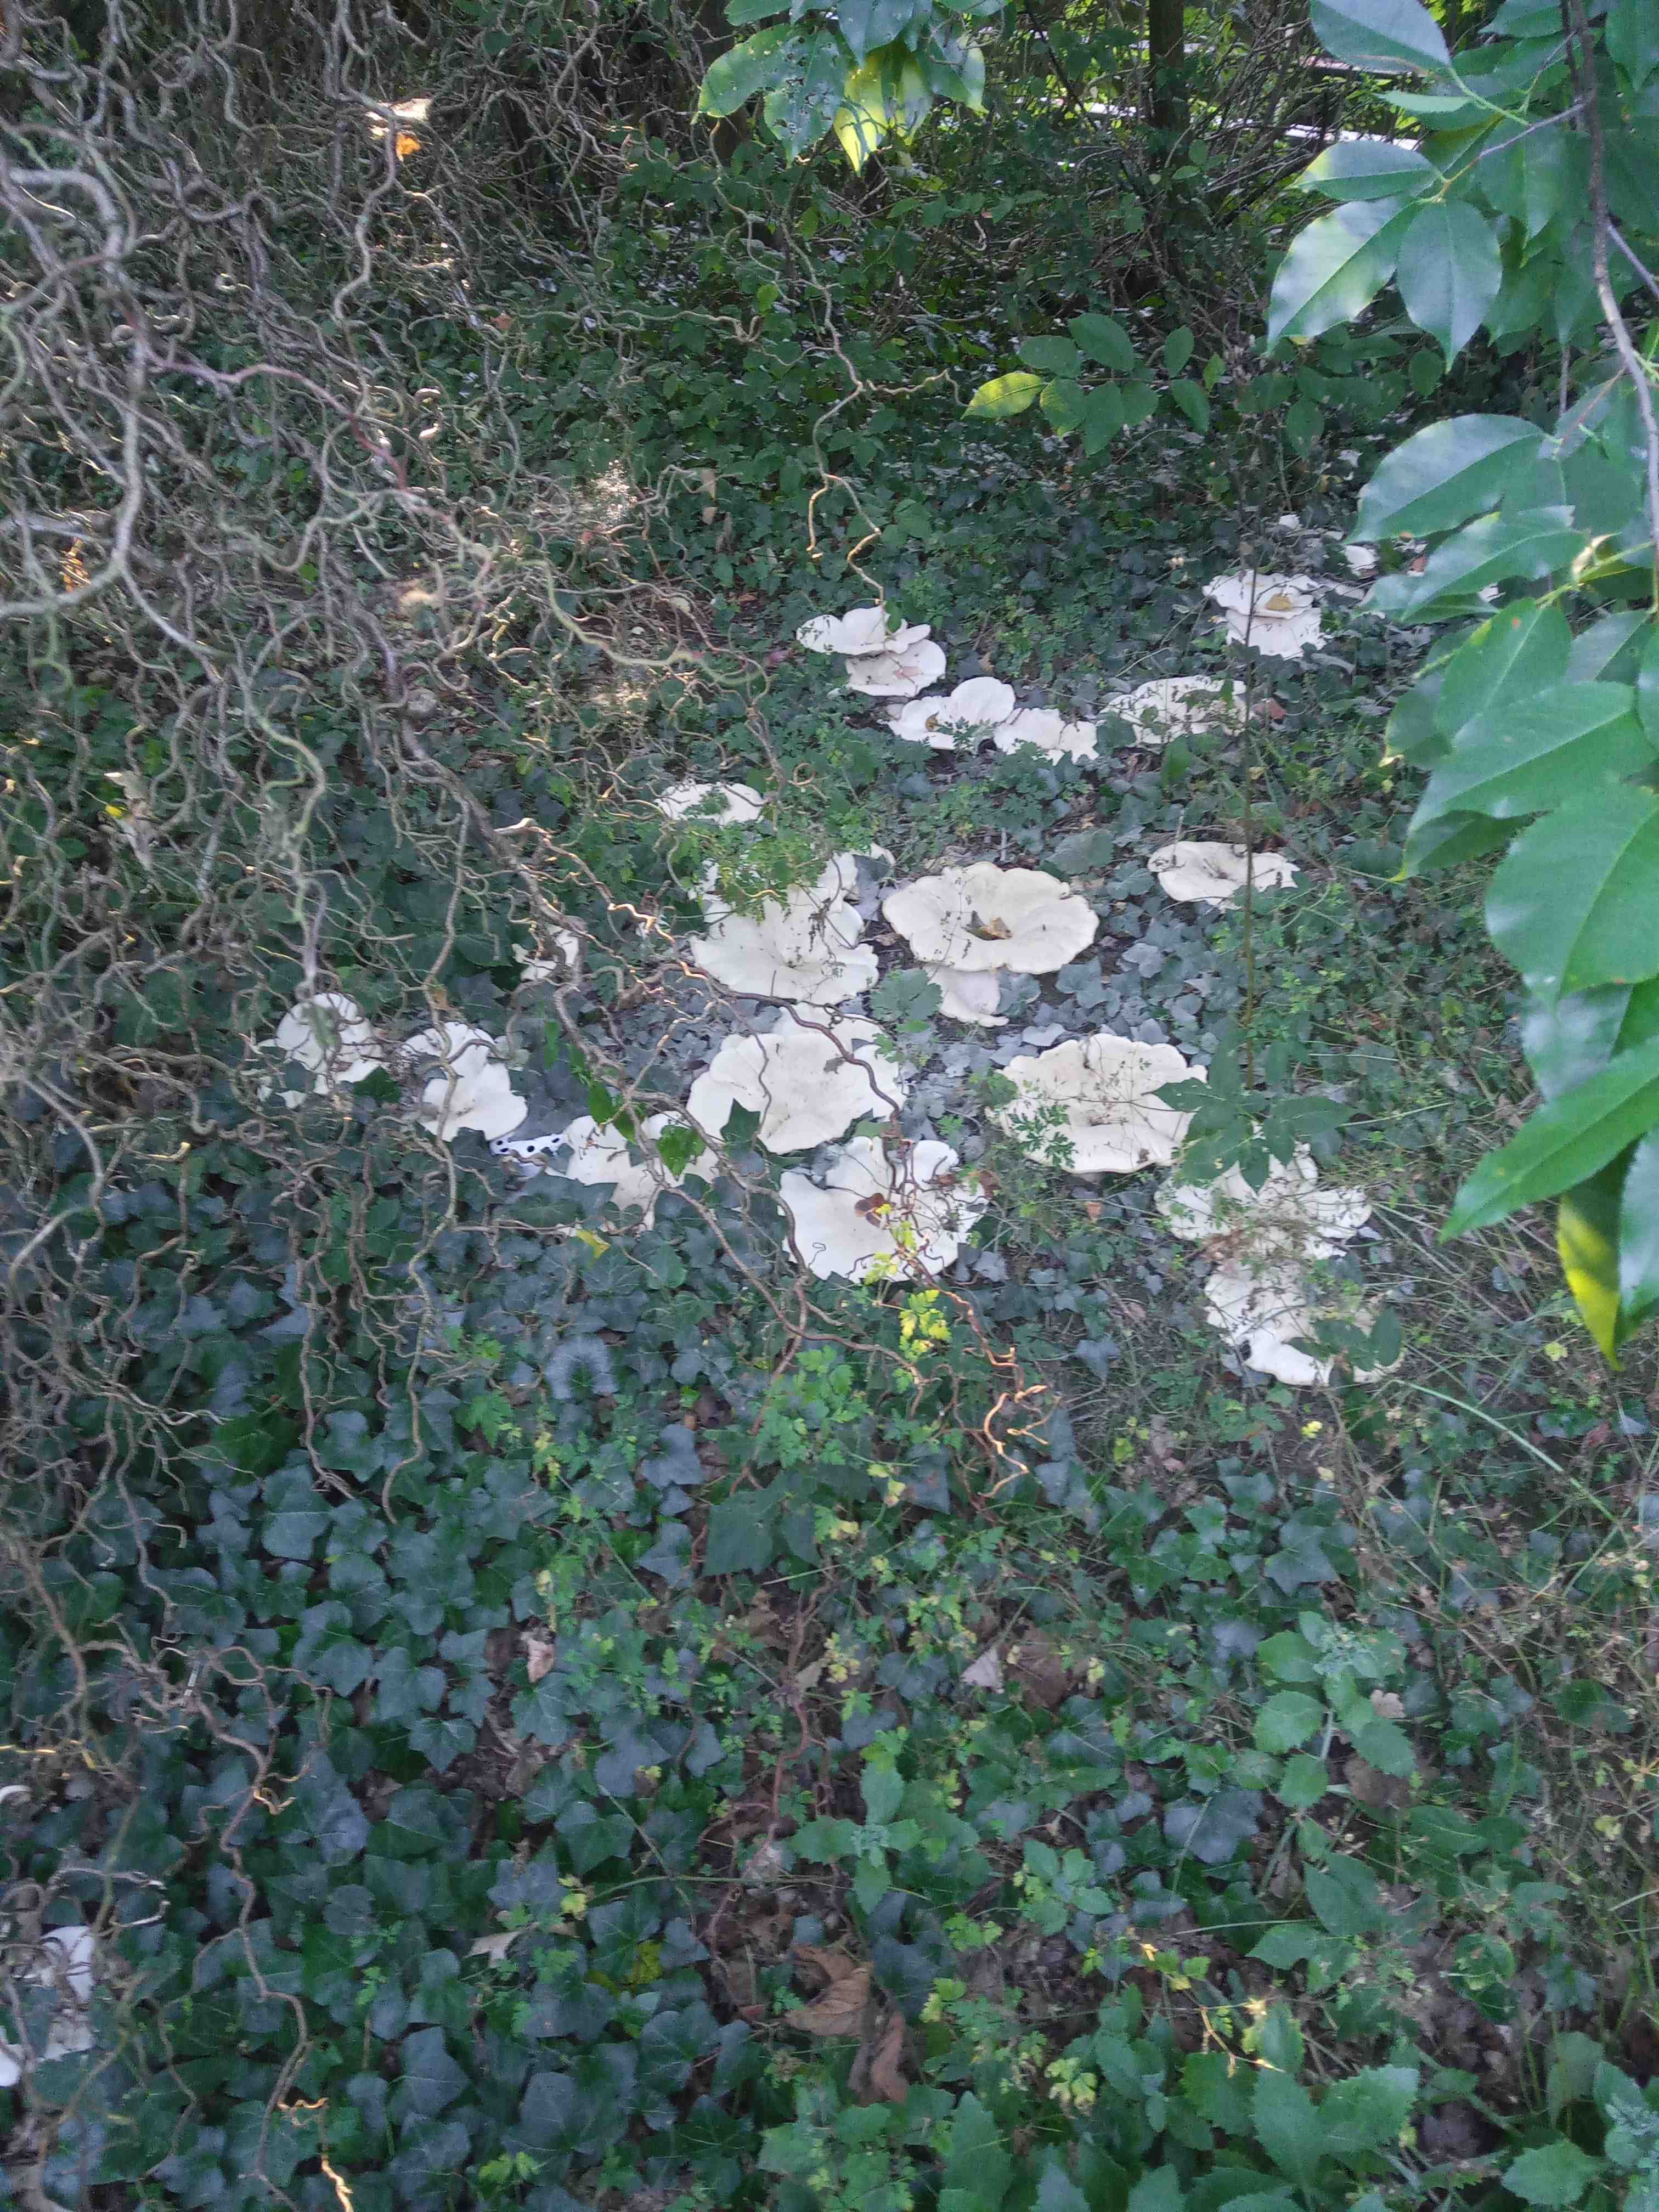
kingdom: Fungi
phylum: Basidiomycota
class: Agaricomycetes
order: Agaricales
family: Tricholomataceae
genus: Aspropaxillus
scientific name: Aspropaxillus giganteus
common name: kæmpe-tragtridderhat
